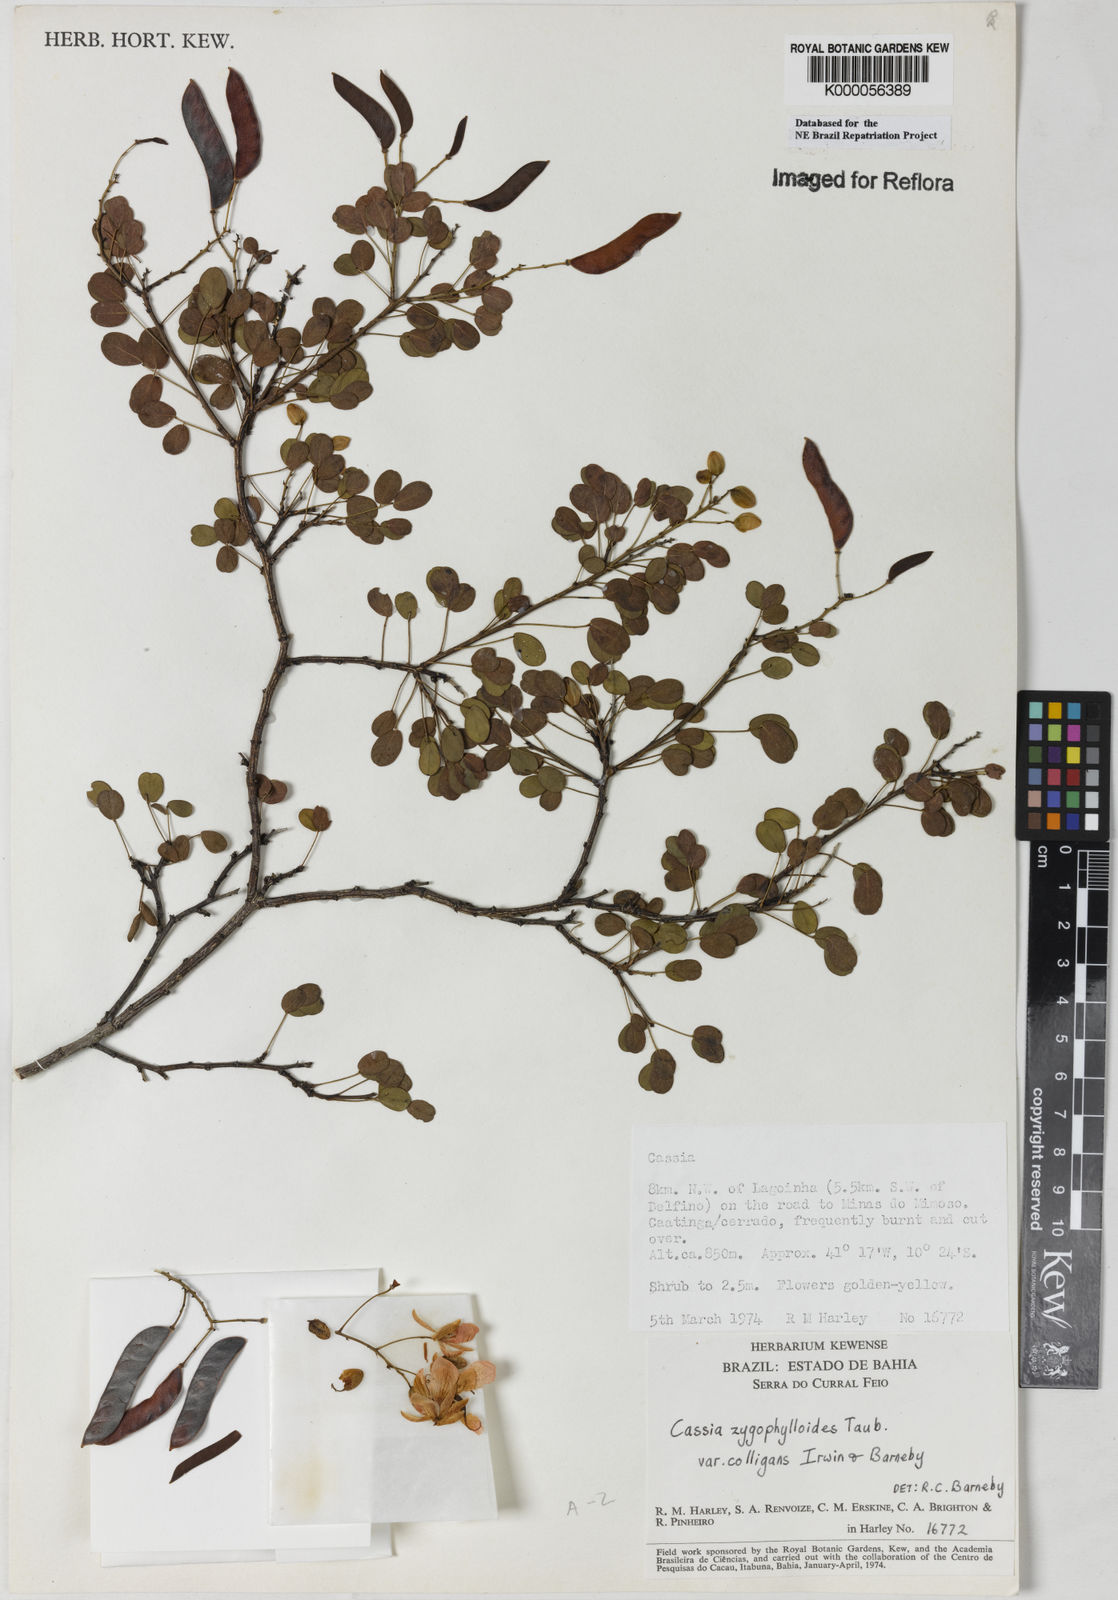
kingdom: Plantae
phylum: Tracheophyta
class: Magnoliopsida
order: Fabales
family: Fabaceae
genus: Chamaecrista
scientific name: Chamaecrista zygophylloides
